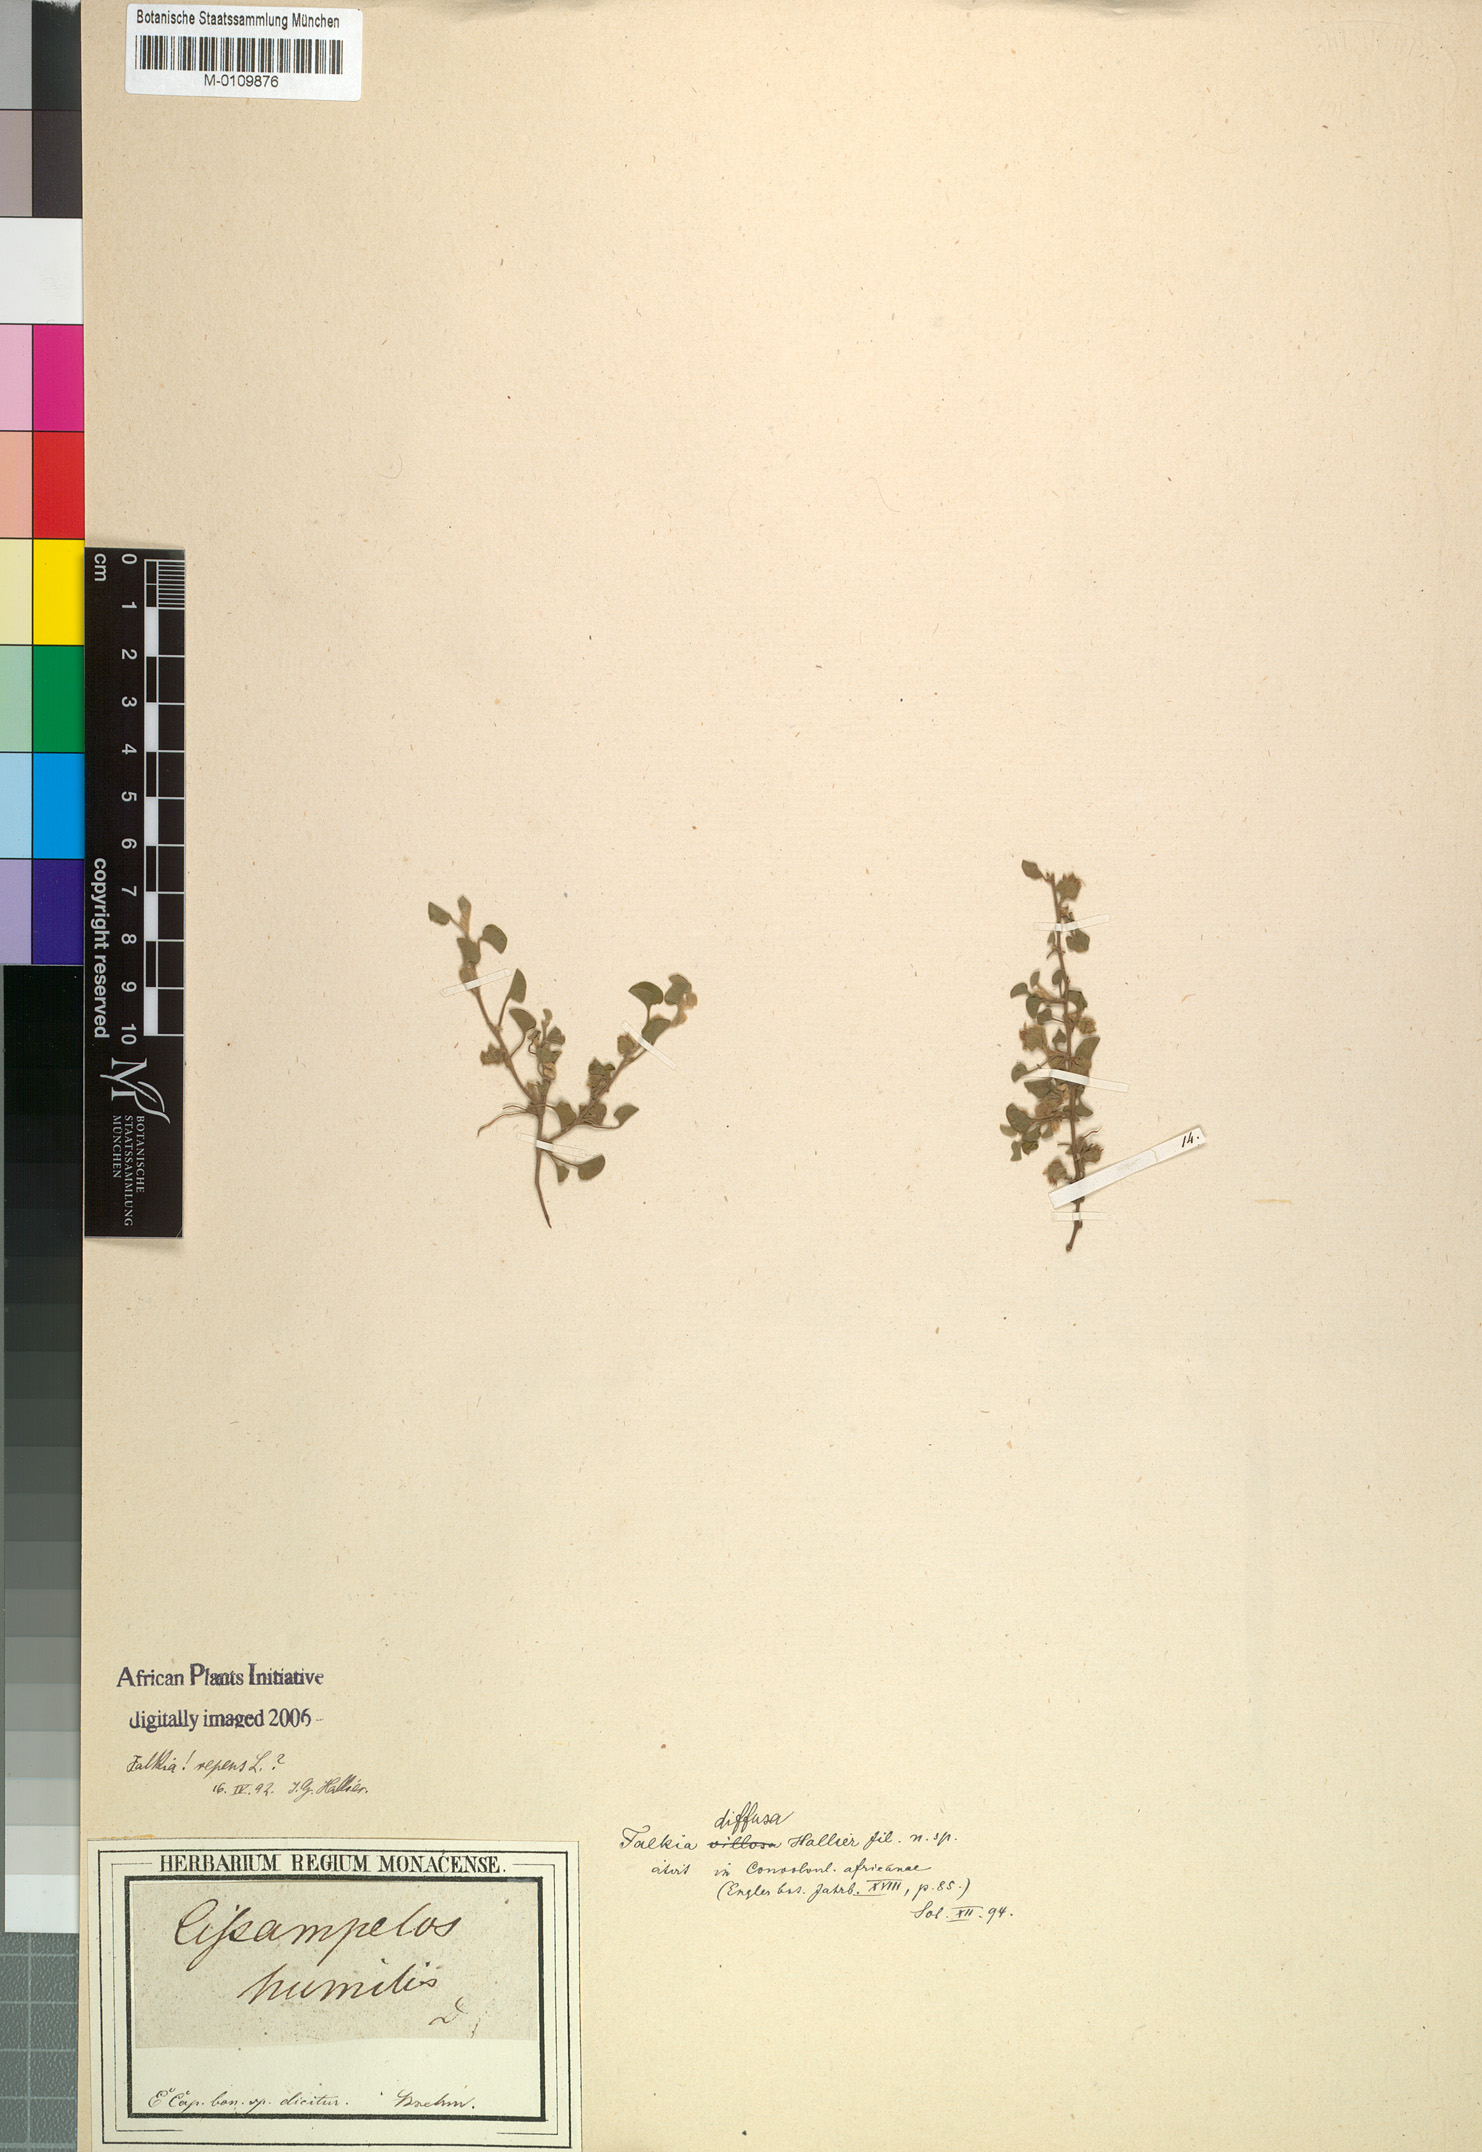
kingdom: Plantae
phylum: Tracheophyta
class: Magnoliopsida
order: Solanales
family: Convolvulaceae
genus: Falkia
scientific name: Falkia repens
